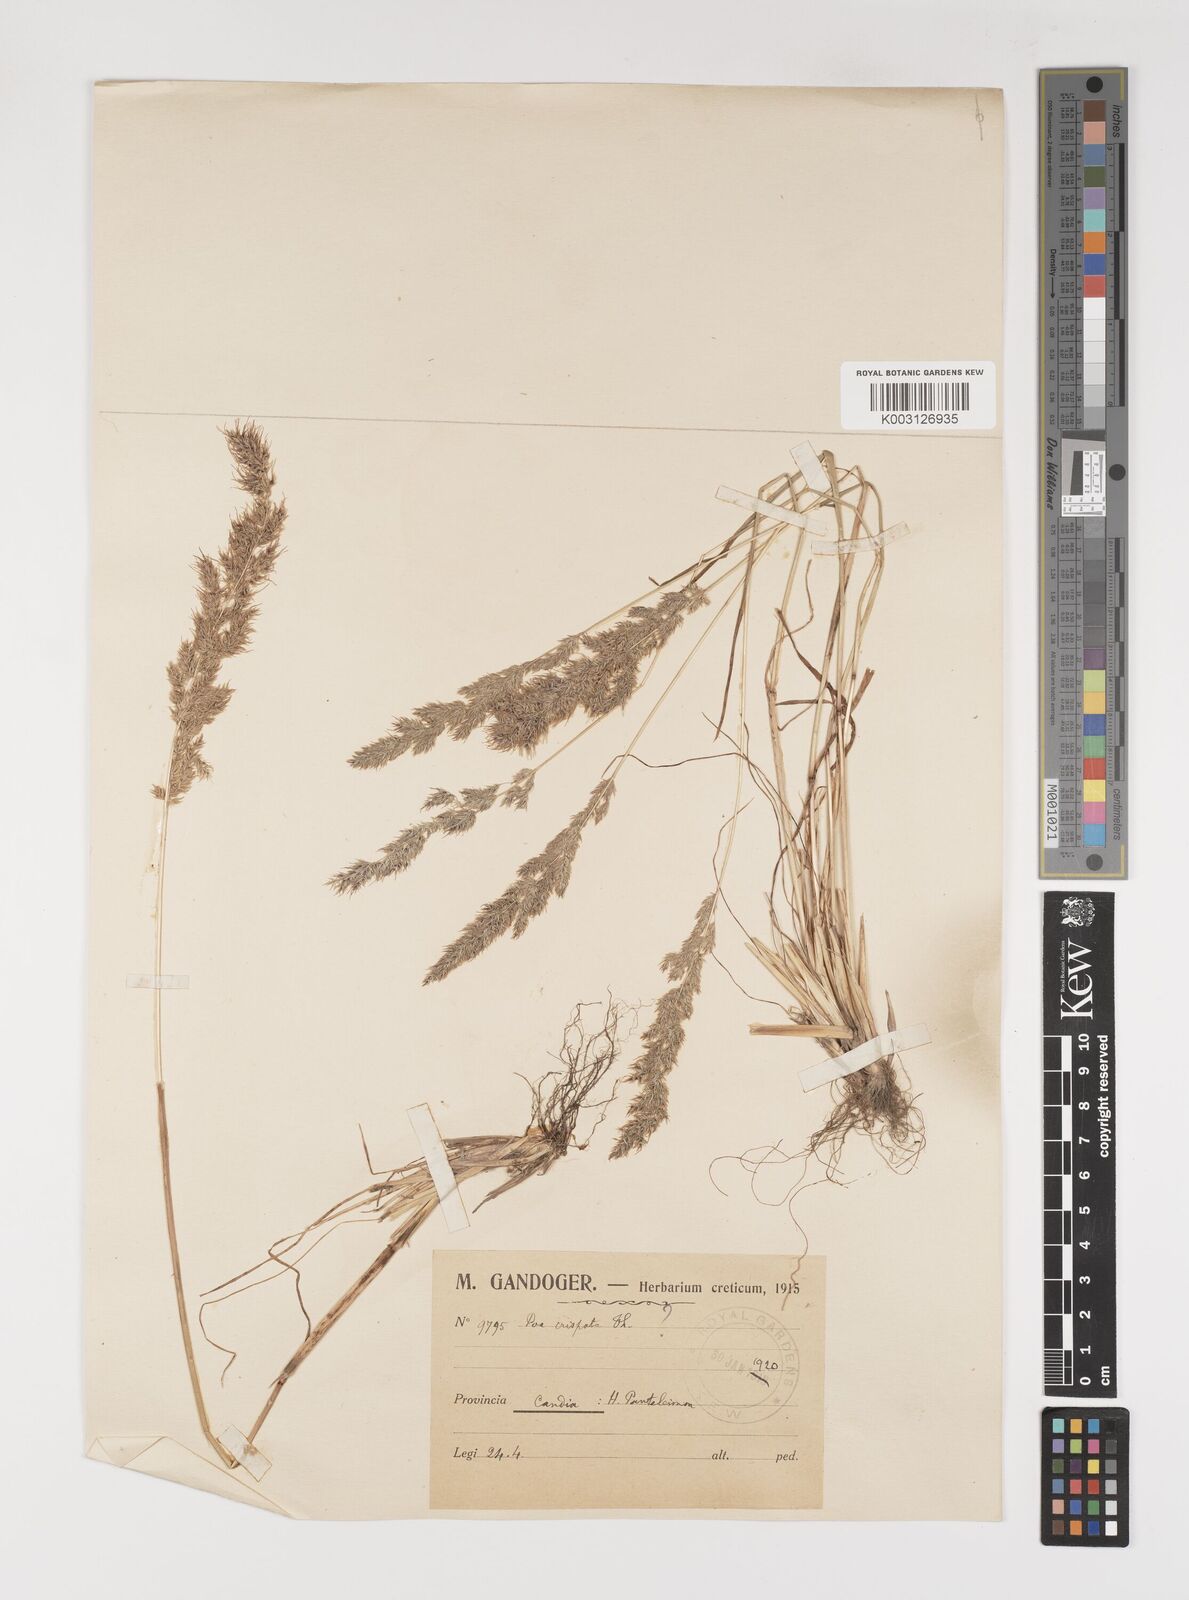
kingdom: Plantae
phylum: Tracheophyta
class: Liliopsida
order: Poales
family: Poaceae
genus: Poa
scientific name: Poa bulbosa
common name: Bulbous bluegrass
